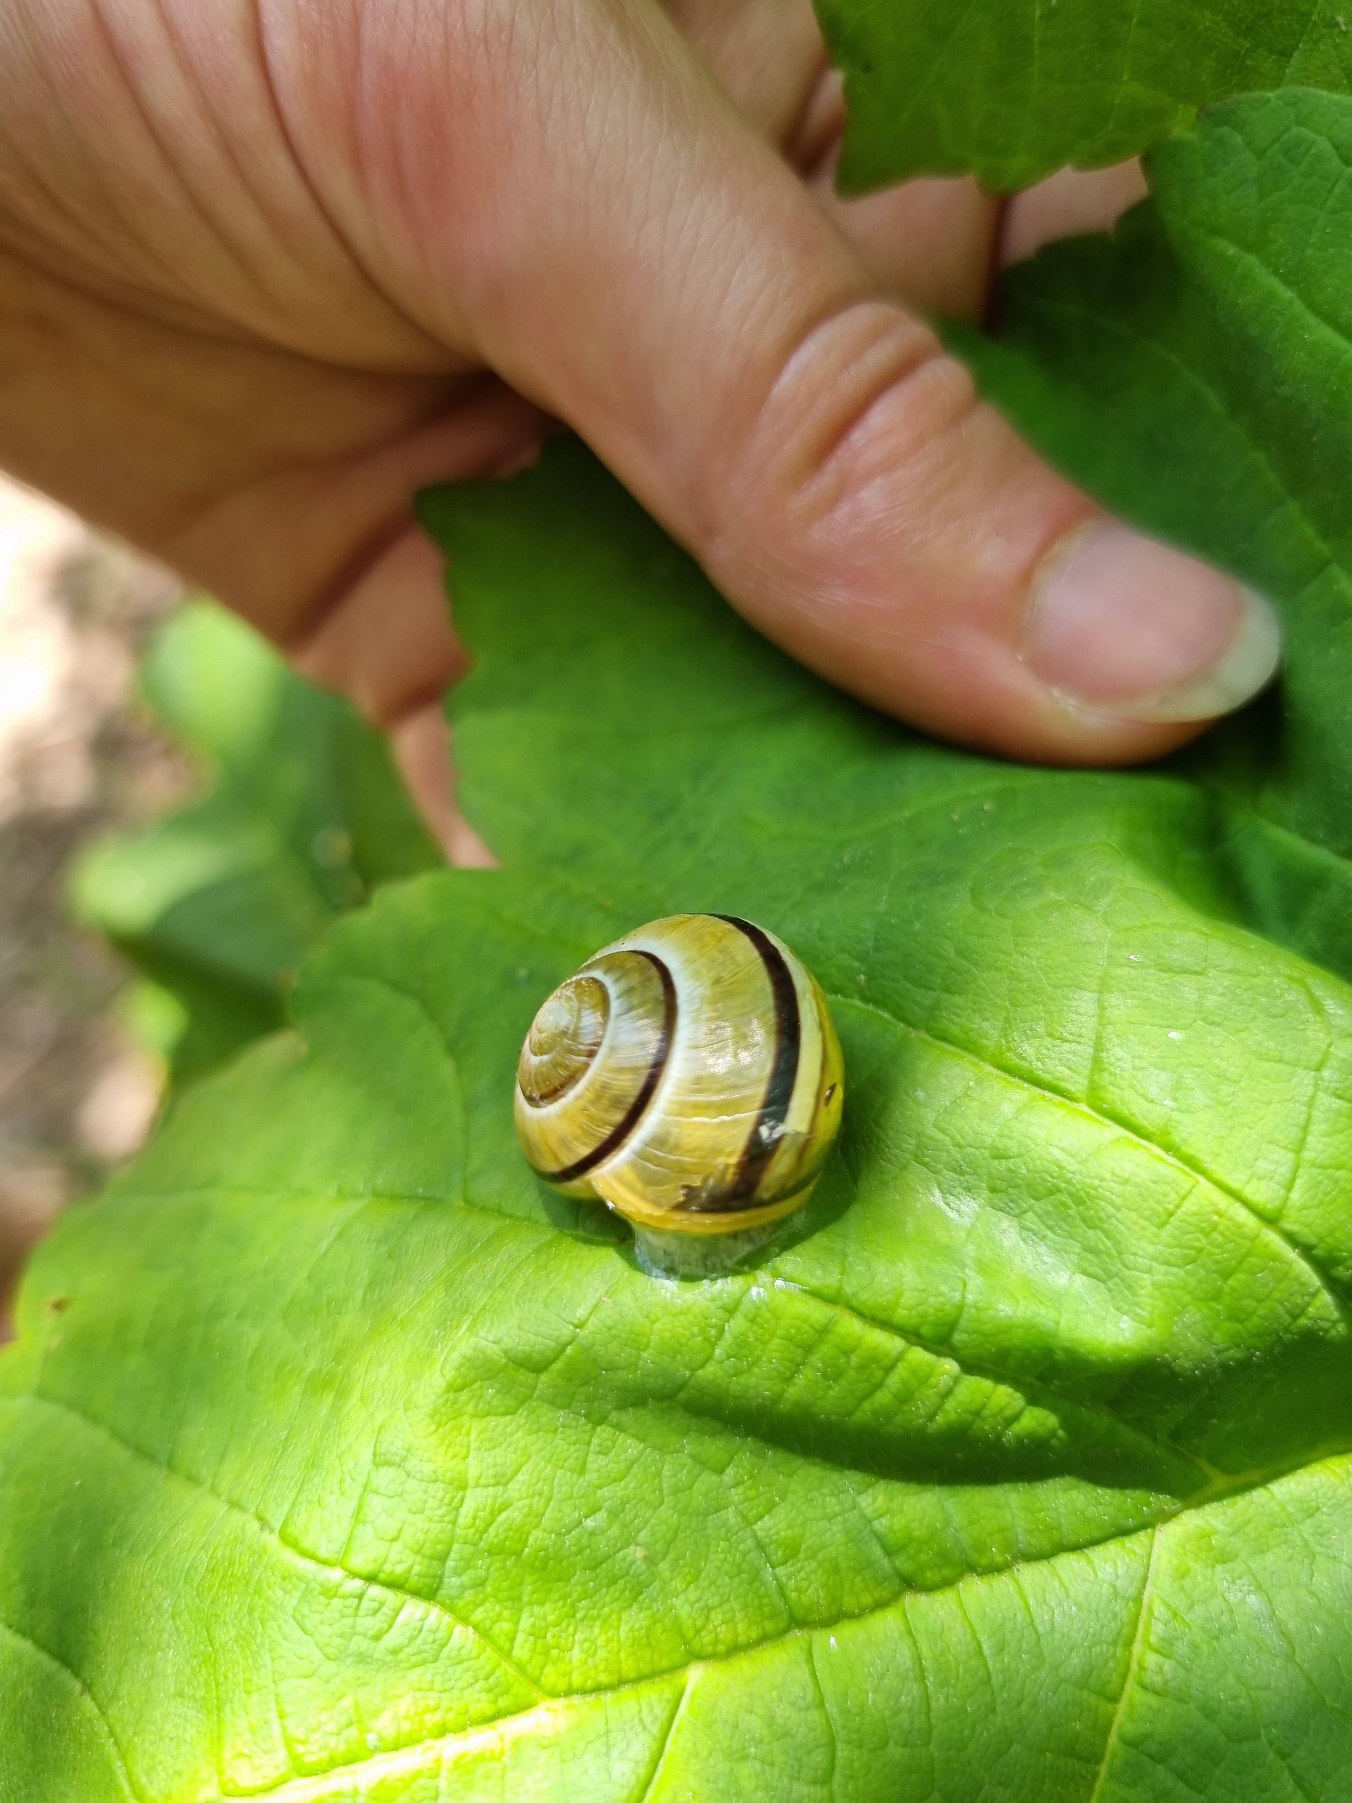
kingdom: Animalia
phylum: Mollusca
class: Gastropoda
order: Stylommatophora
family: Helicidae
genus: Cepaea
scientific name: Cepaea hortensis
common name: Havesnegl
